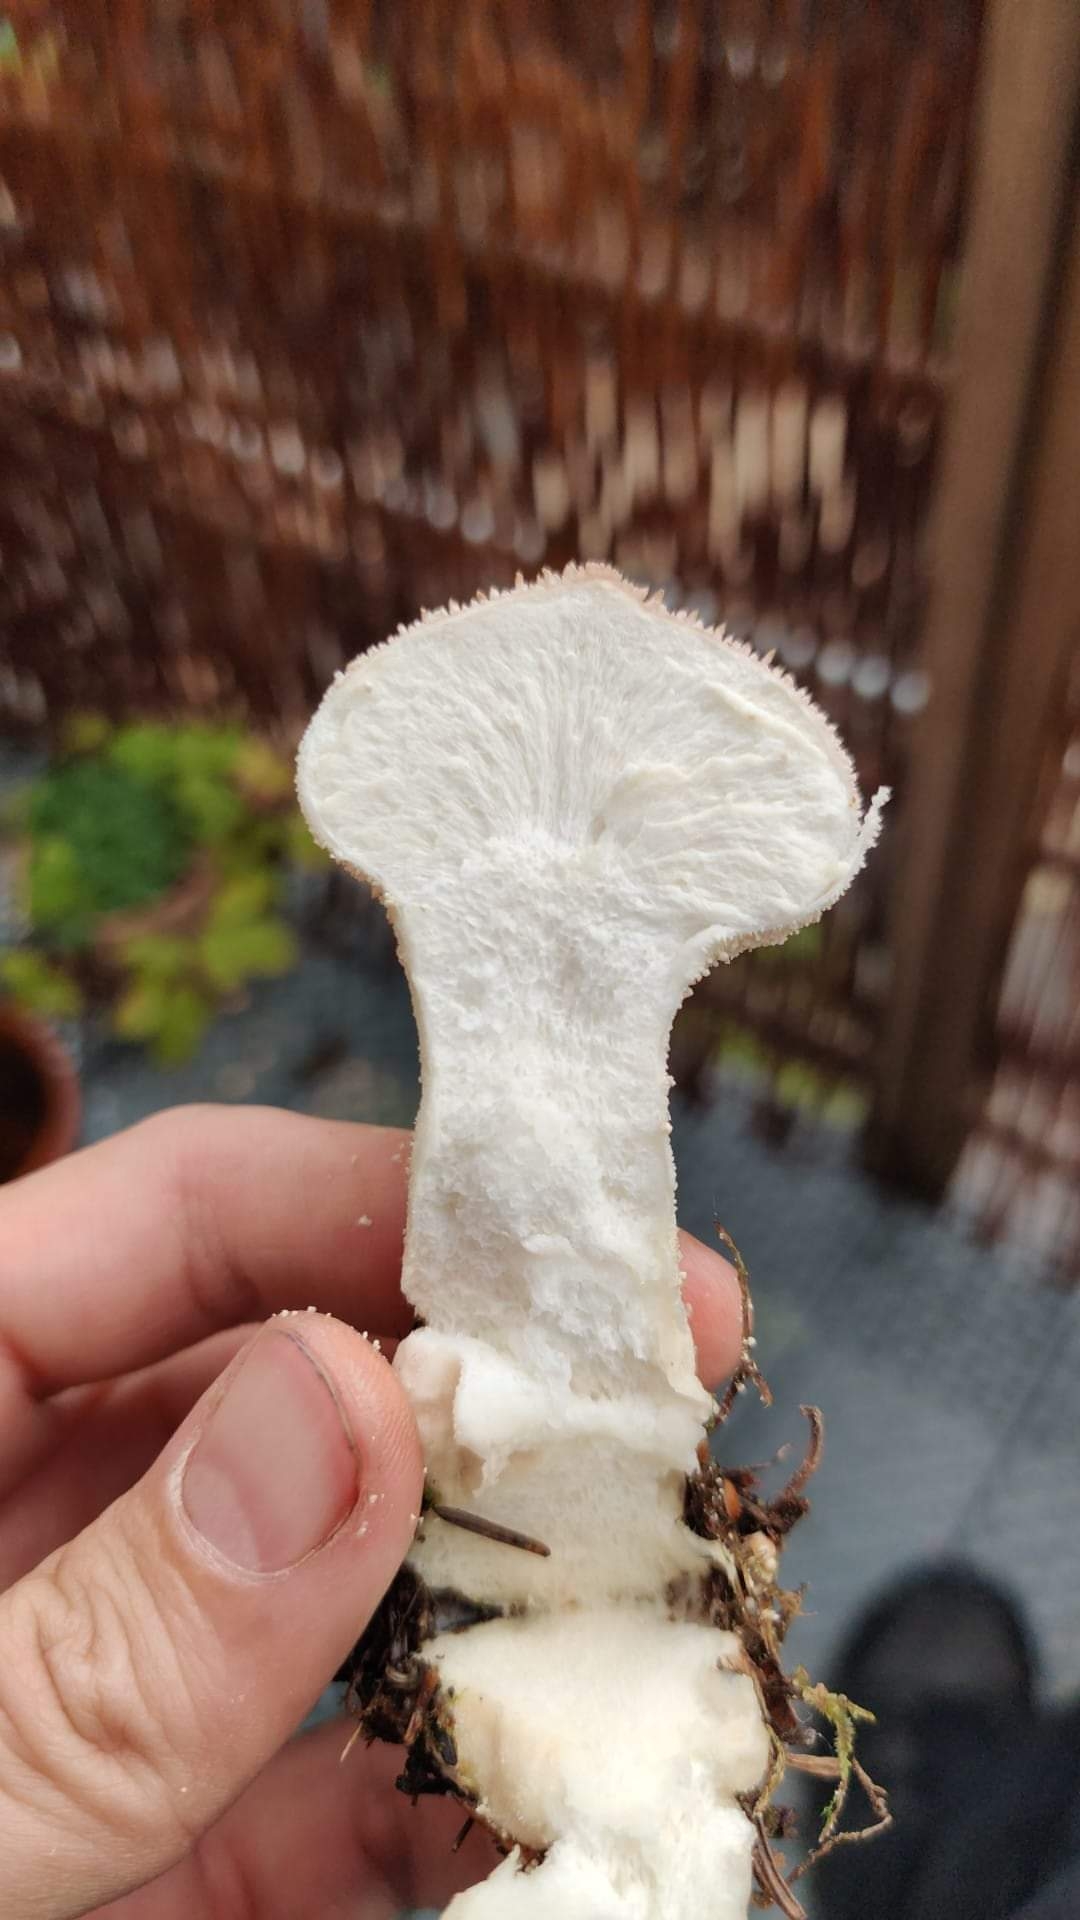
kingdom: Fungi
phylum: Basidiomycota
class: Agaricomycetes
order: Agaricales
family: Lycoperdaceae
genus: Lycoperdon
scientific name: Lycoperdon perlatum
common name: krystal-støvbold
